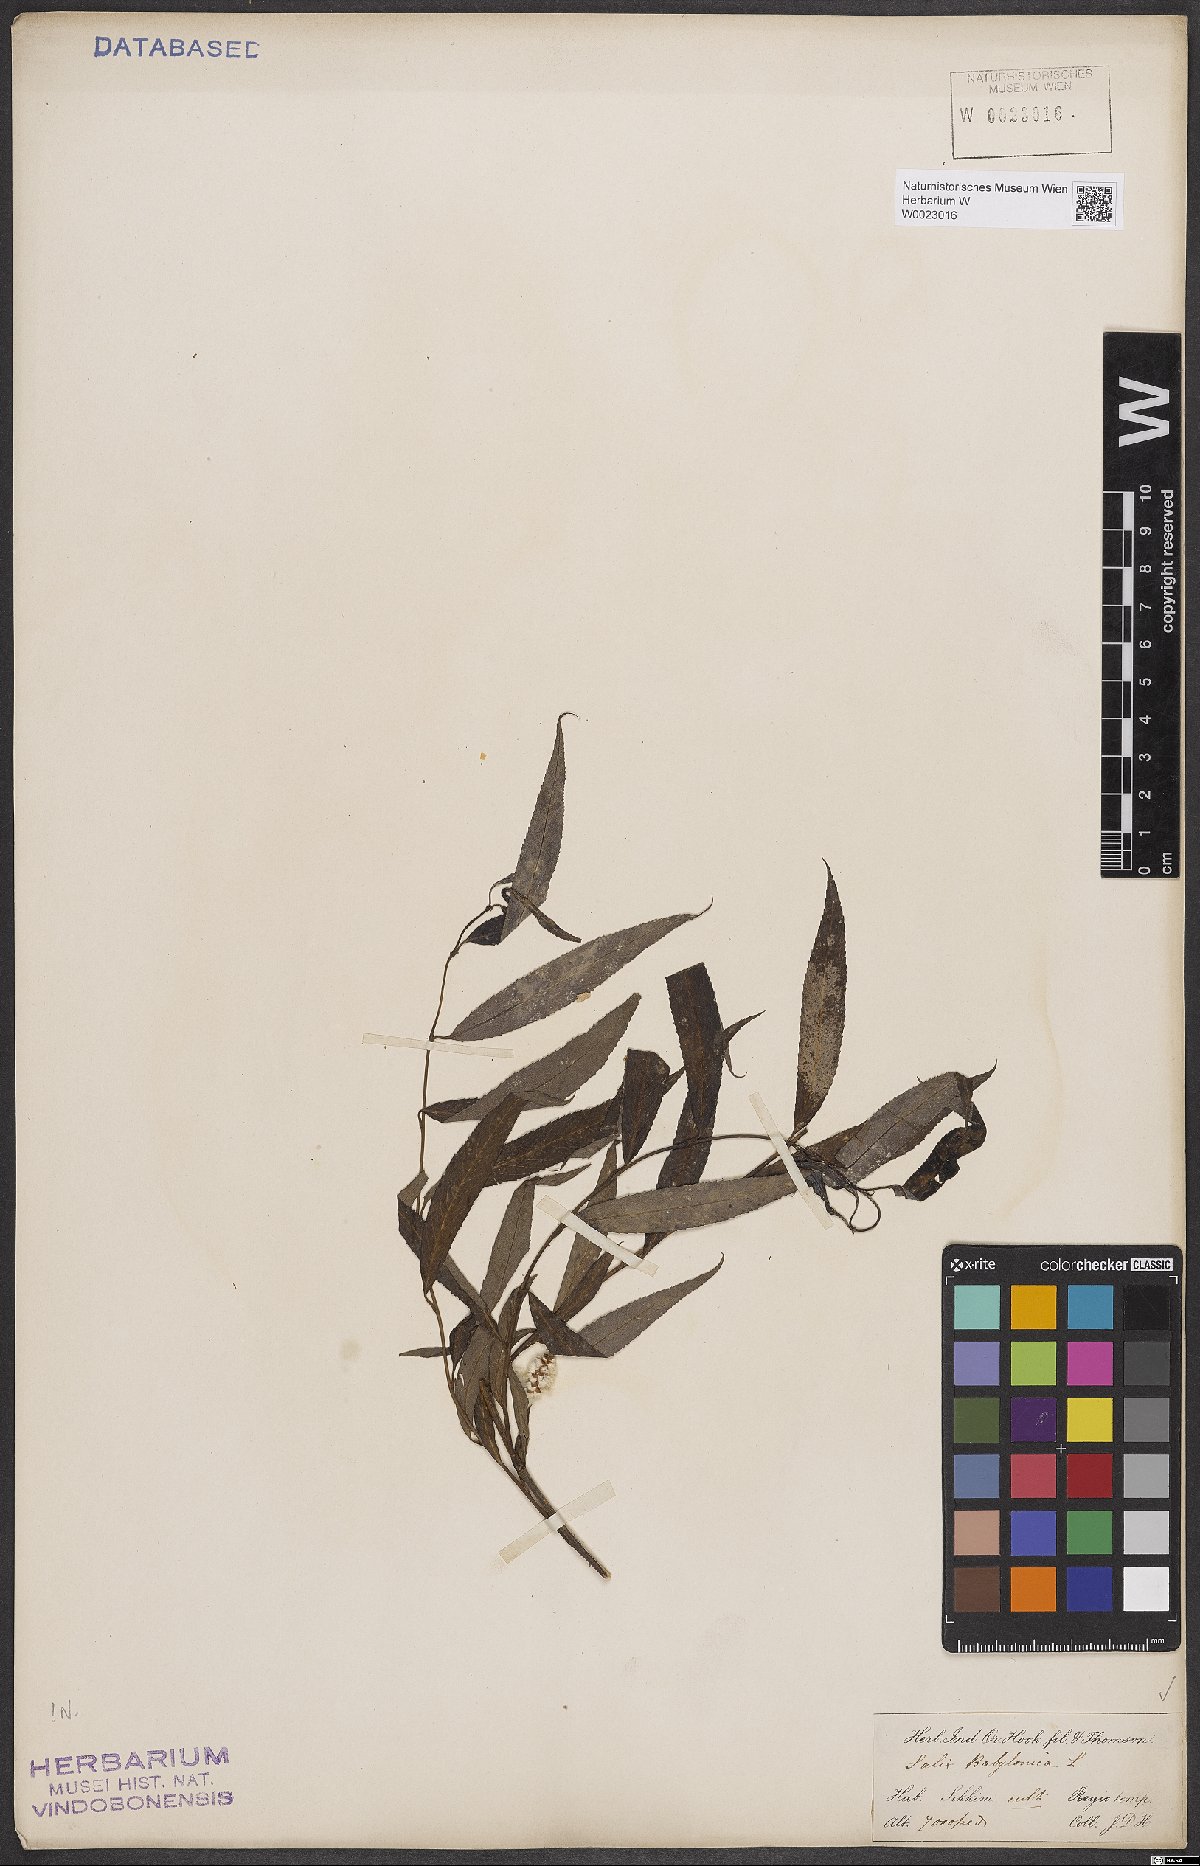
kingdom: Plantae
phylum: Tracheophyta
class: Magnoliopsida
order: Malpighiales
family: Salicaceae
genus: Salix
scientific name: Salix babylonica
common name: Weeping willow
